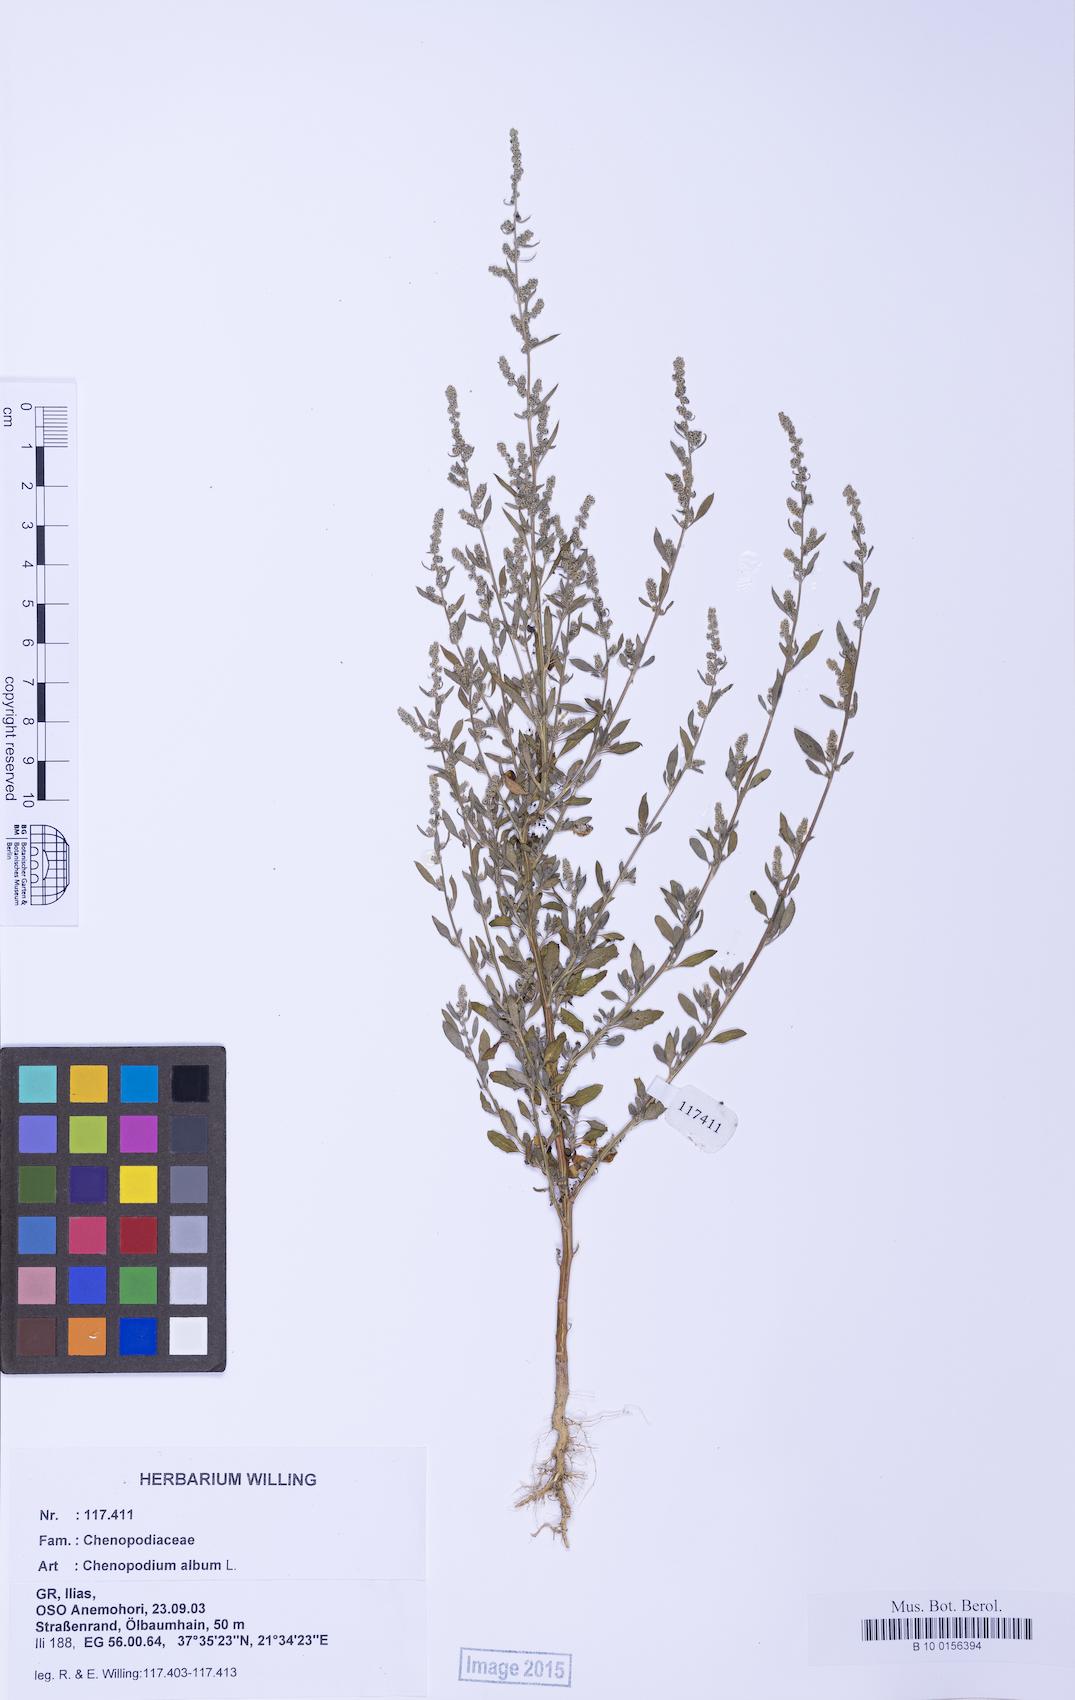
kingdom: Plantae
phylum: Tracheophyta
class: Magnoliopsida
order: Caryophyllales
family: Amaranthaceae
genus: Chenopodium
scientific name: Chenopodium album
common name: Fat-hen
